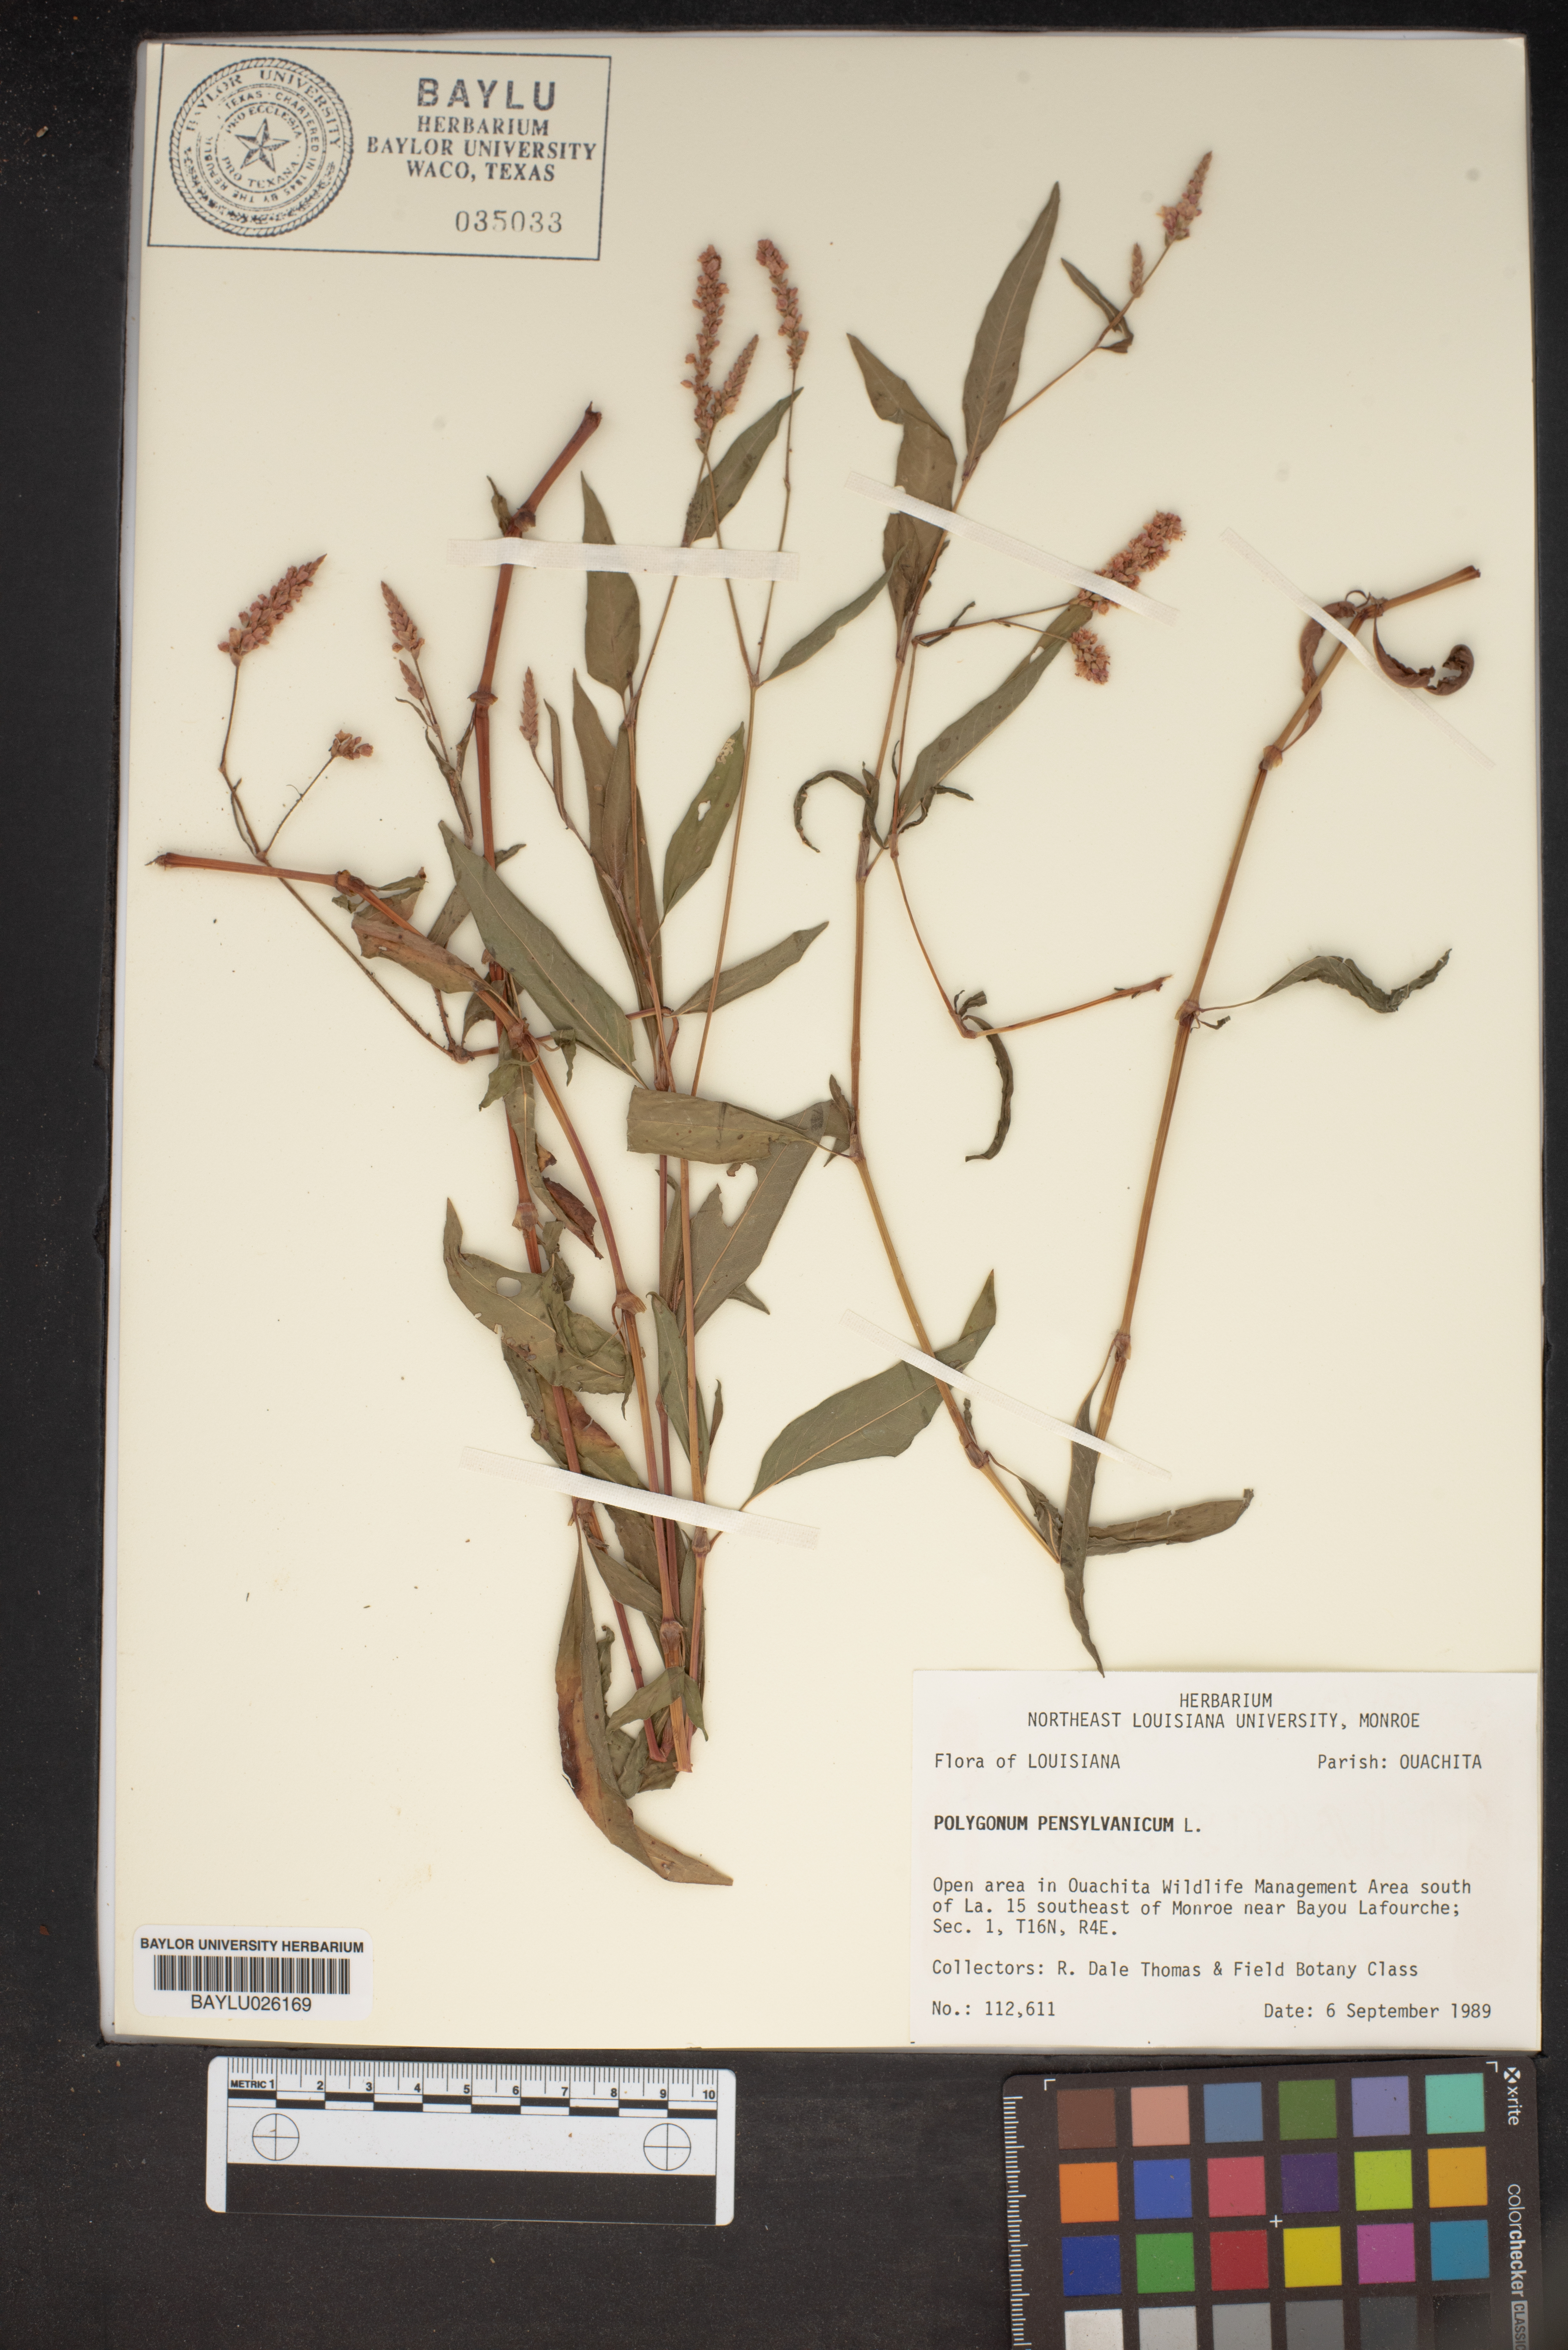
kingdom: Plantae
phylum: Tracheophyta
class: Magnoliopsida
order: Caryophyllales
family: Polygonaceae
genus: Persicaria
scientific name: Persicaria pensylvanica
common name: Pinkweed
